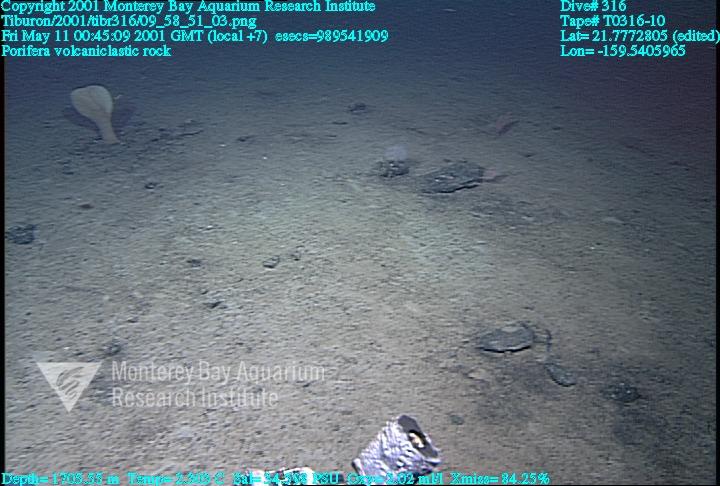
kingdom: Animalia
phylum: Porifera
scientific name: Porifera
